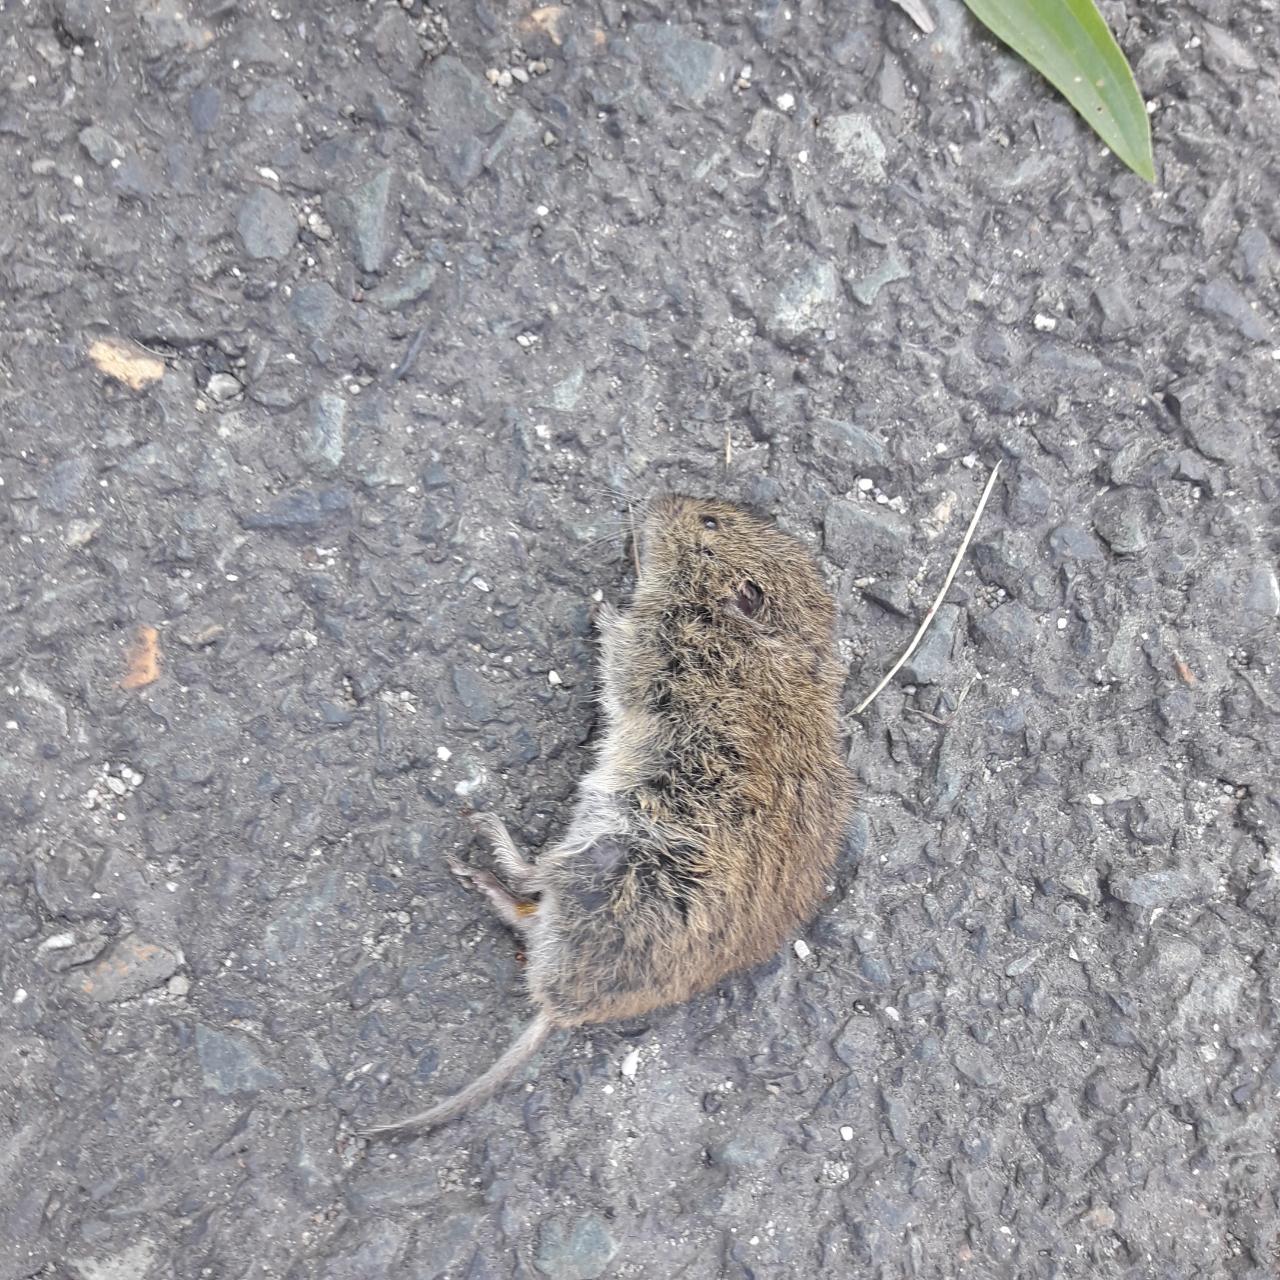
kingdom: Animalia
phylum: Chordata
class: Mammalia
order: Rodentia
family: Cricetidae
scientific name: Cricetidae
